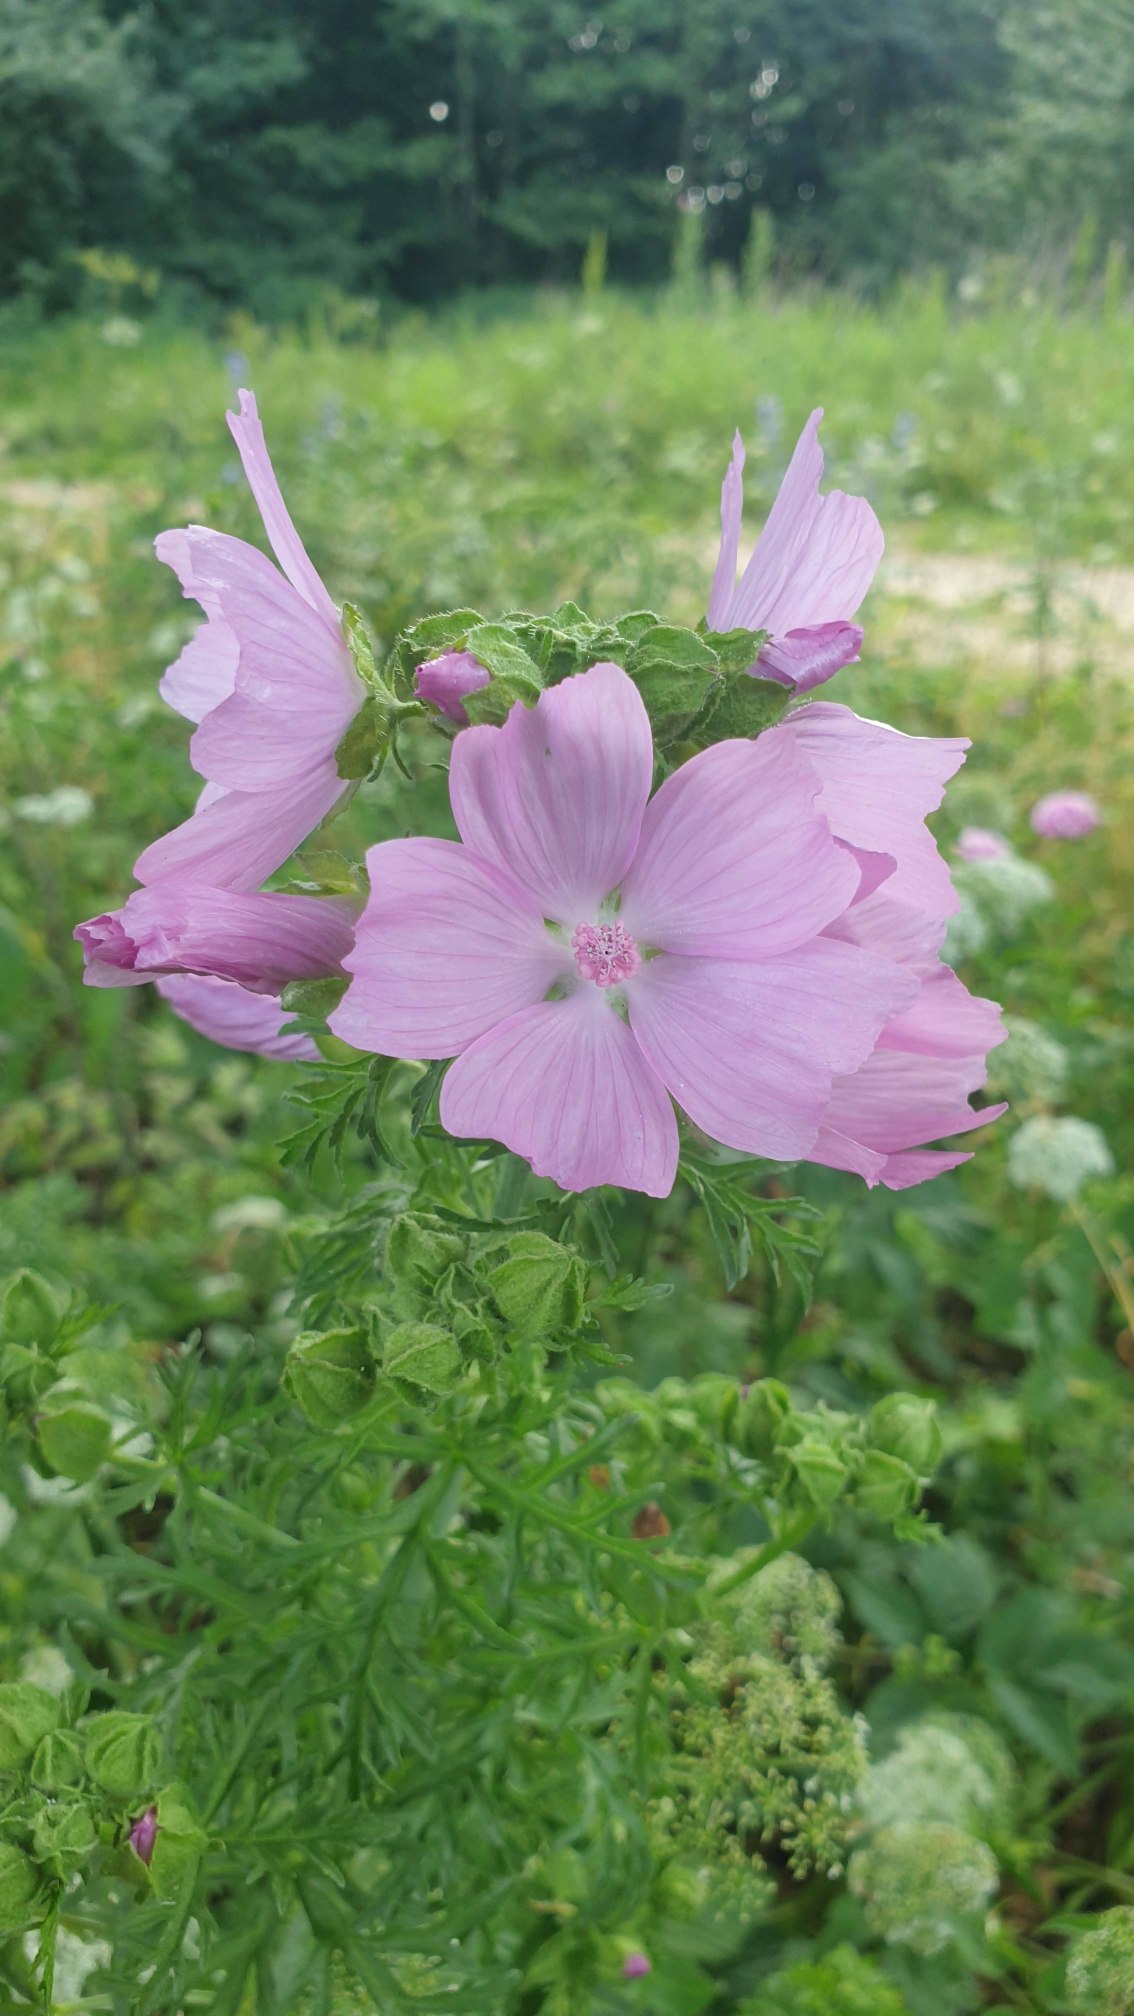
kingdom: Plantae
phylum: Tracheophyta
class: Magnoliopsida
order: Malvales
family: Malvaceae
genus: Malva
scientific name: Malva moschata
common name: Moskus-katost
